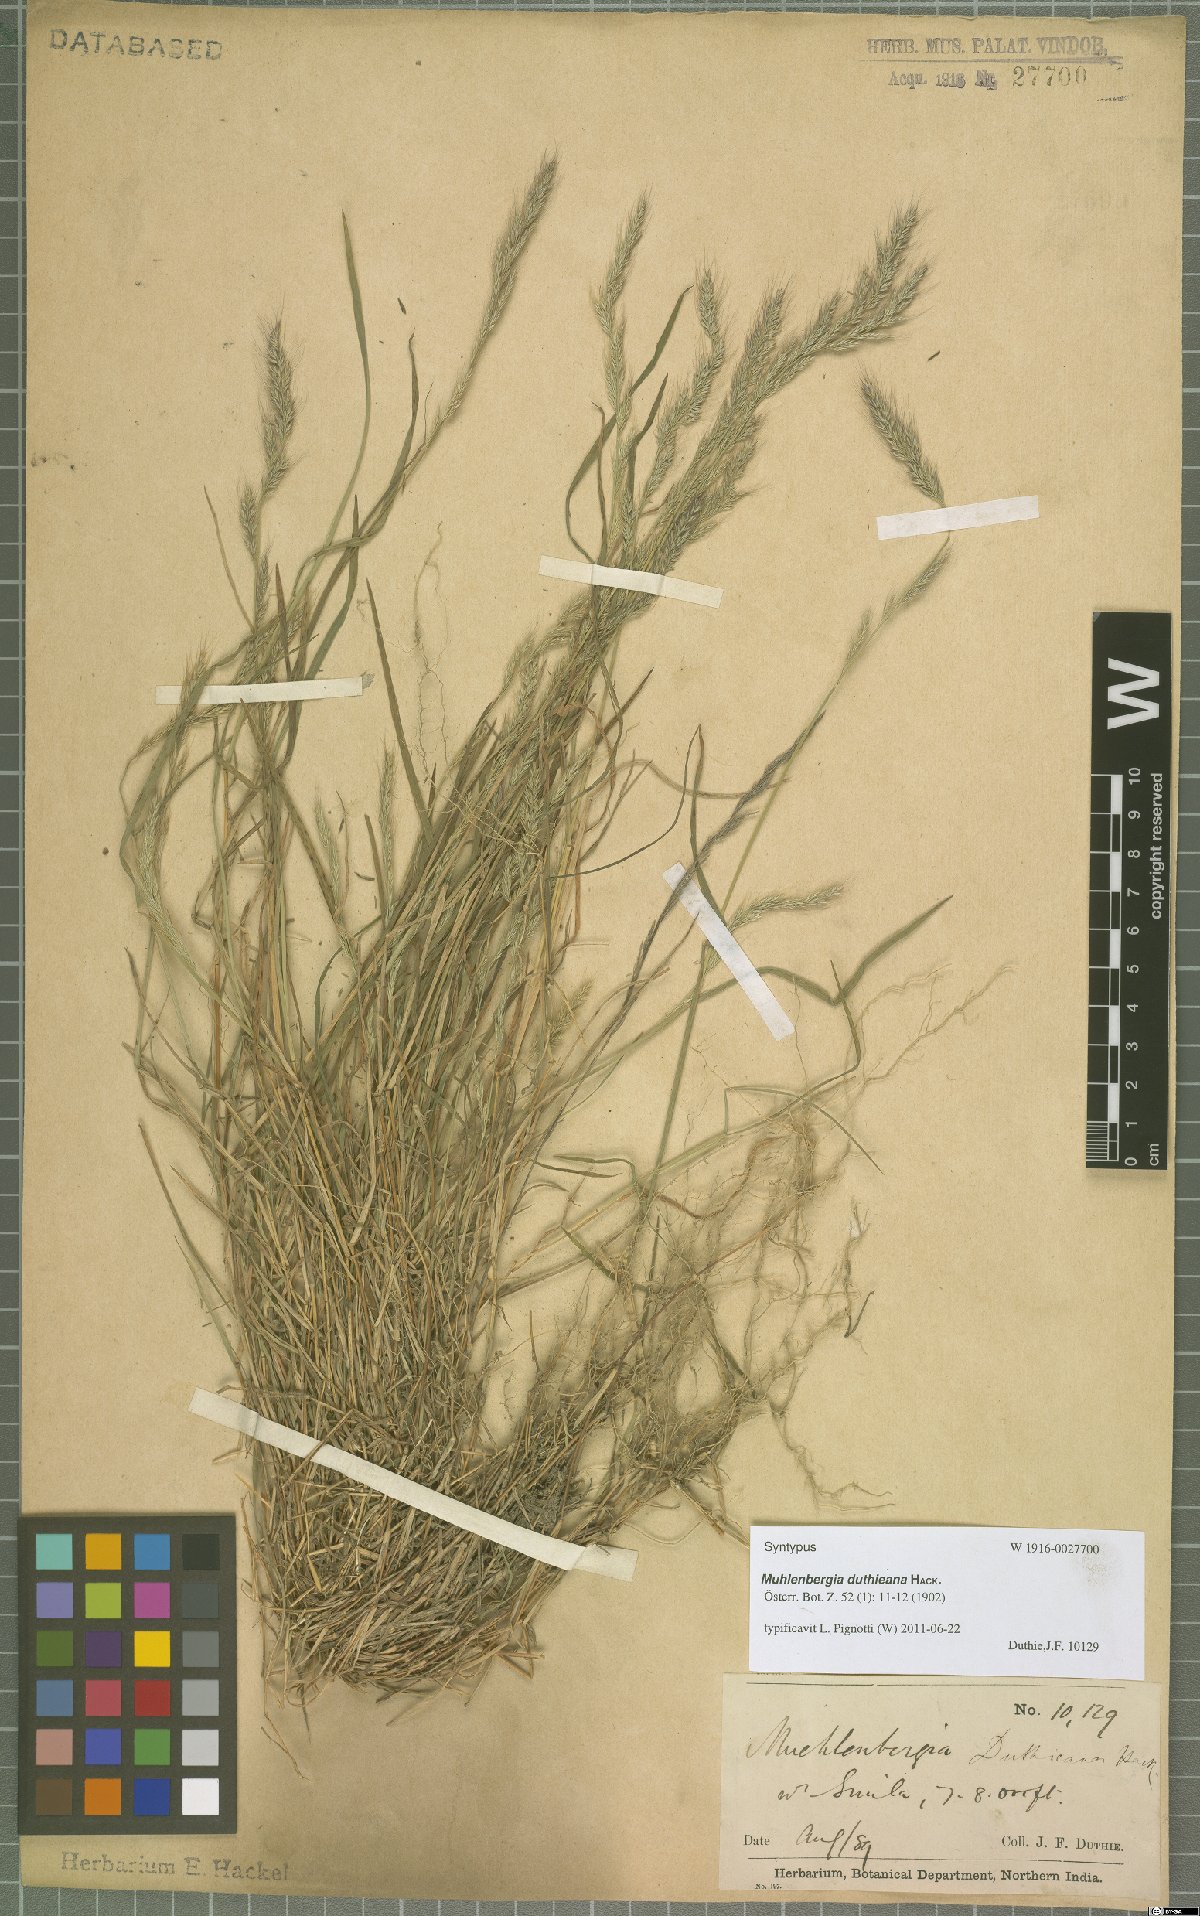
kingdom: Plantae
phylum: Tracheophyta
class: Liliopsida
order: Poales
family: Poaceae
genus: Muhlenbergia
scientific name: Muhlenbergia duthieana
